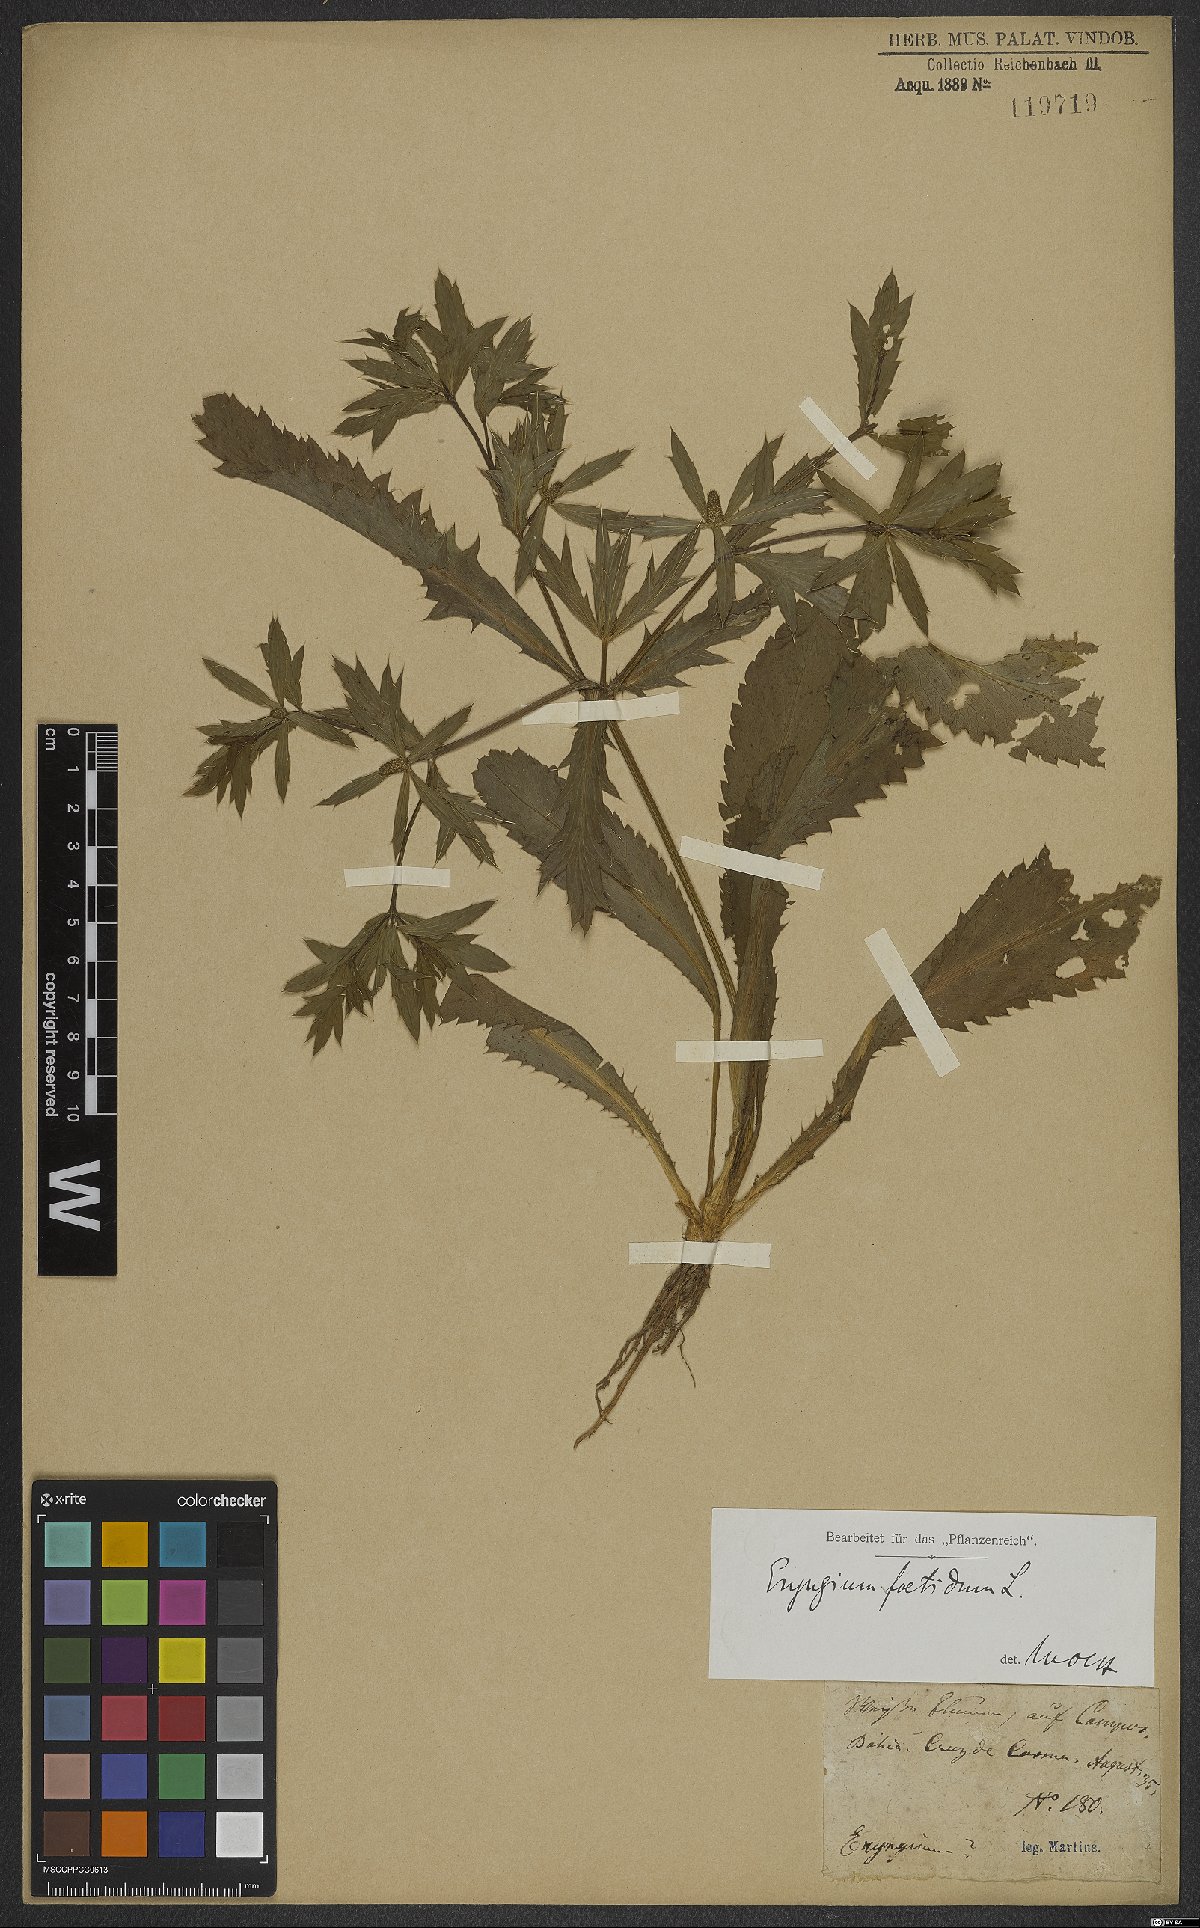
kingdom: Plantae
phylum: Tracheophyta
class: Magnoliopsida
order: Apiales
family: Apiaceae
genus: Eryngium
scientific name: Eryngium foetidum
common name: Fitweed
